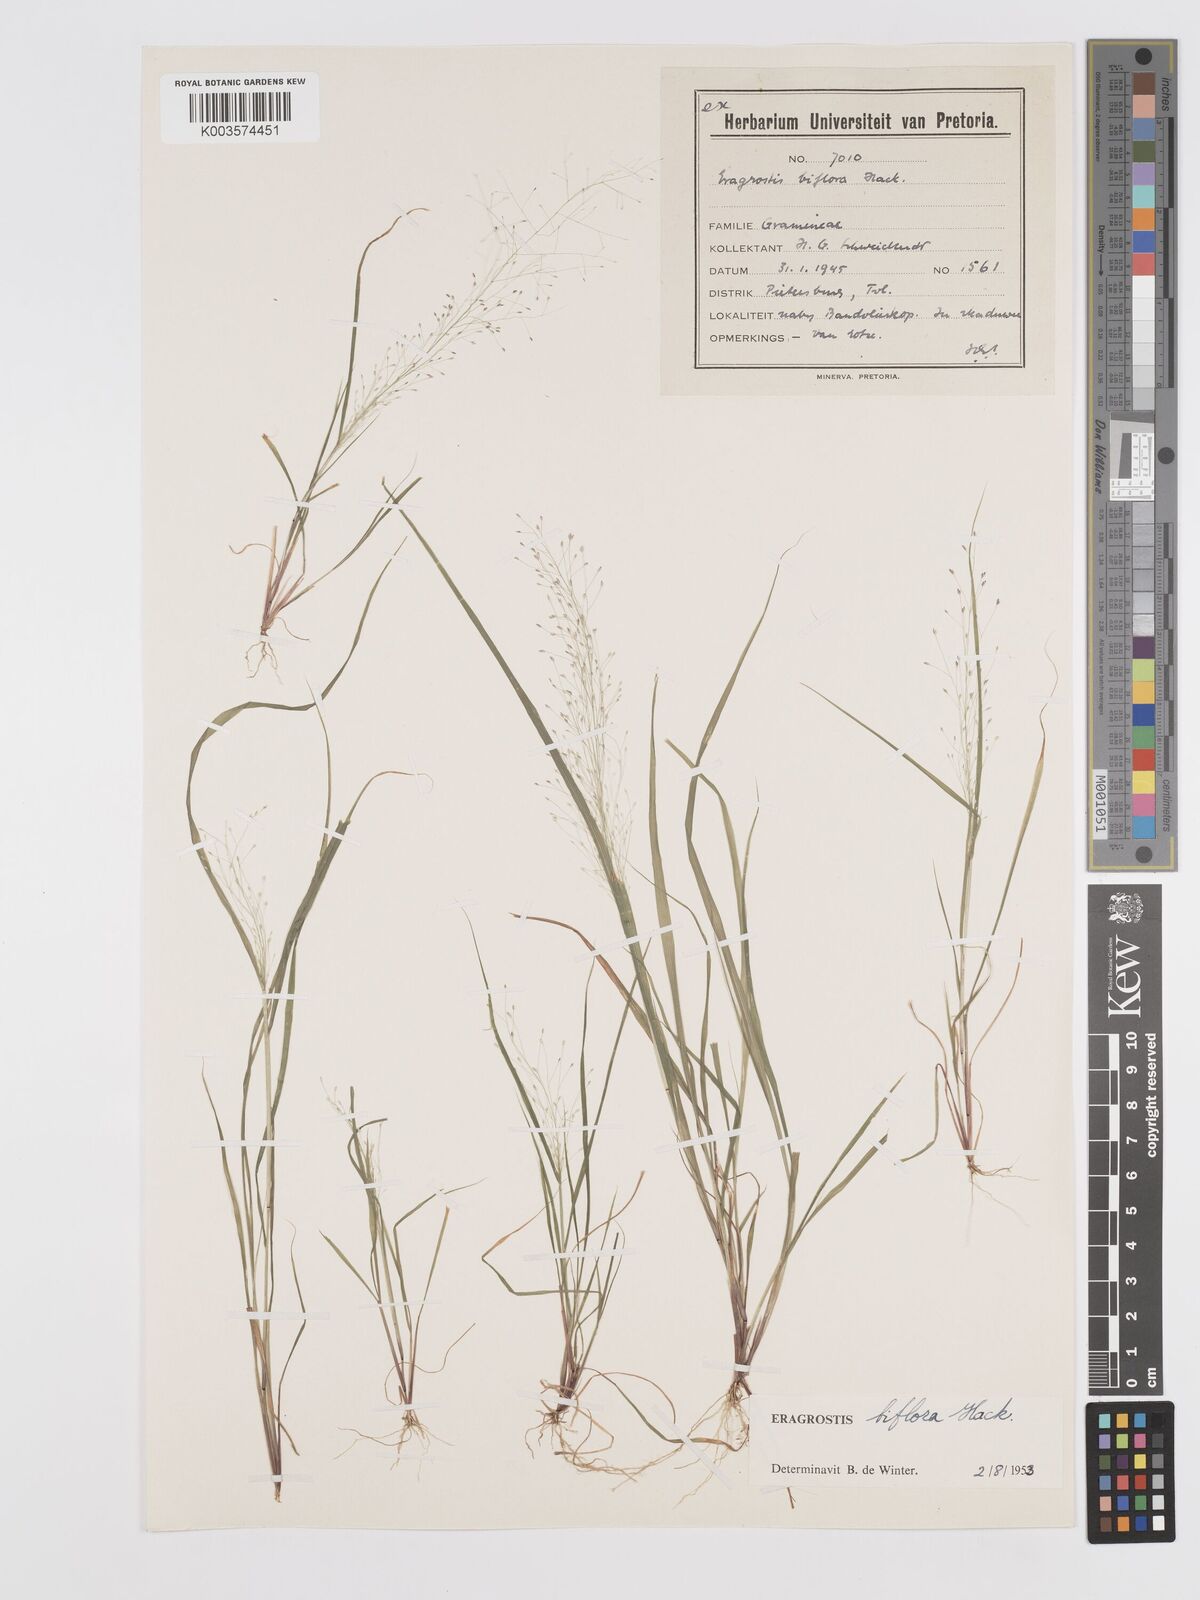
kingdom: Plantae
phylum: Tracheophyta
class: Liliopsida
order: Poales
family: Poaceae
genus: Eragrostis
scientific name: Eragrostis biflora
